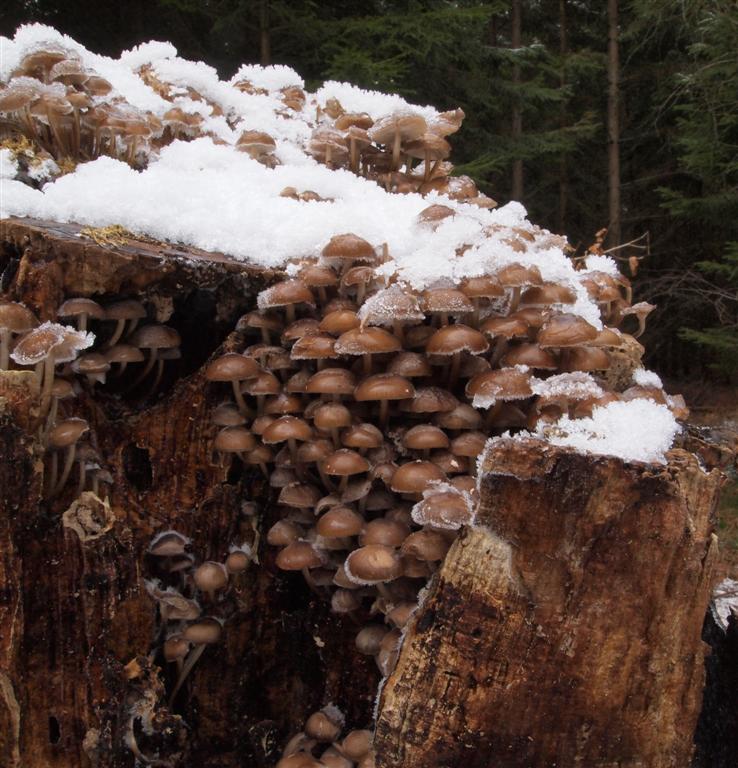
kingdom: Fungi
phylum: Basidiomycota
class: Agaricomycetes
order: Agaricales
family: Mycenaceae
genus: Mycena
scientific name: Mycena tintinnabulum
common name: vinter-huesvamp
